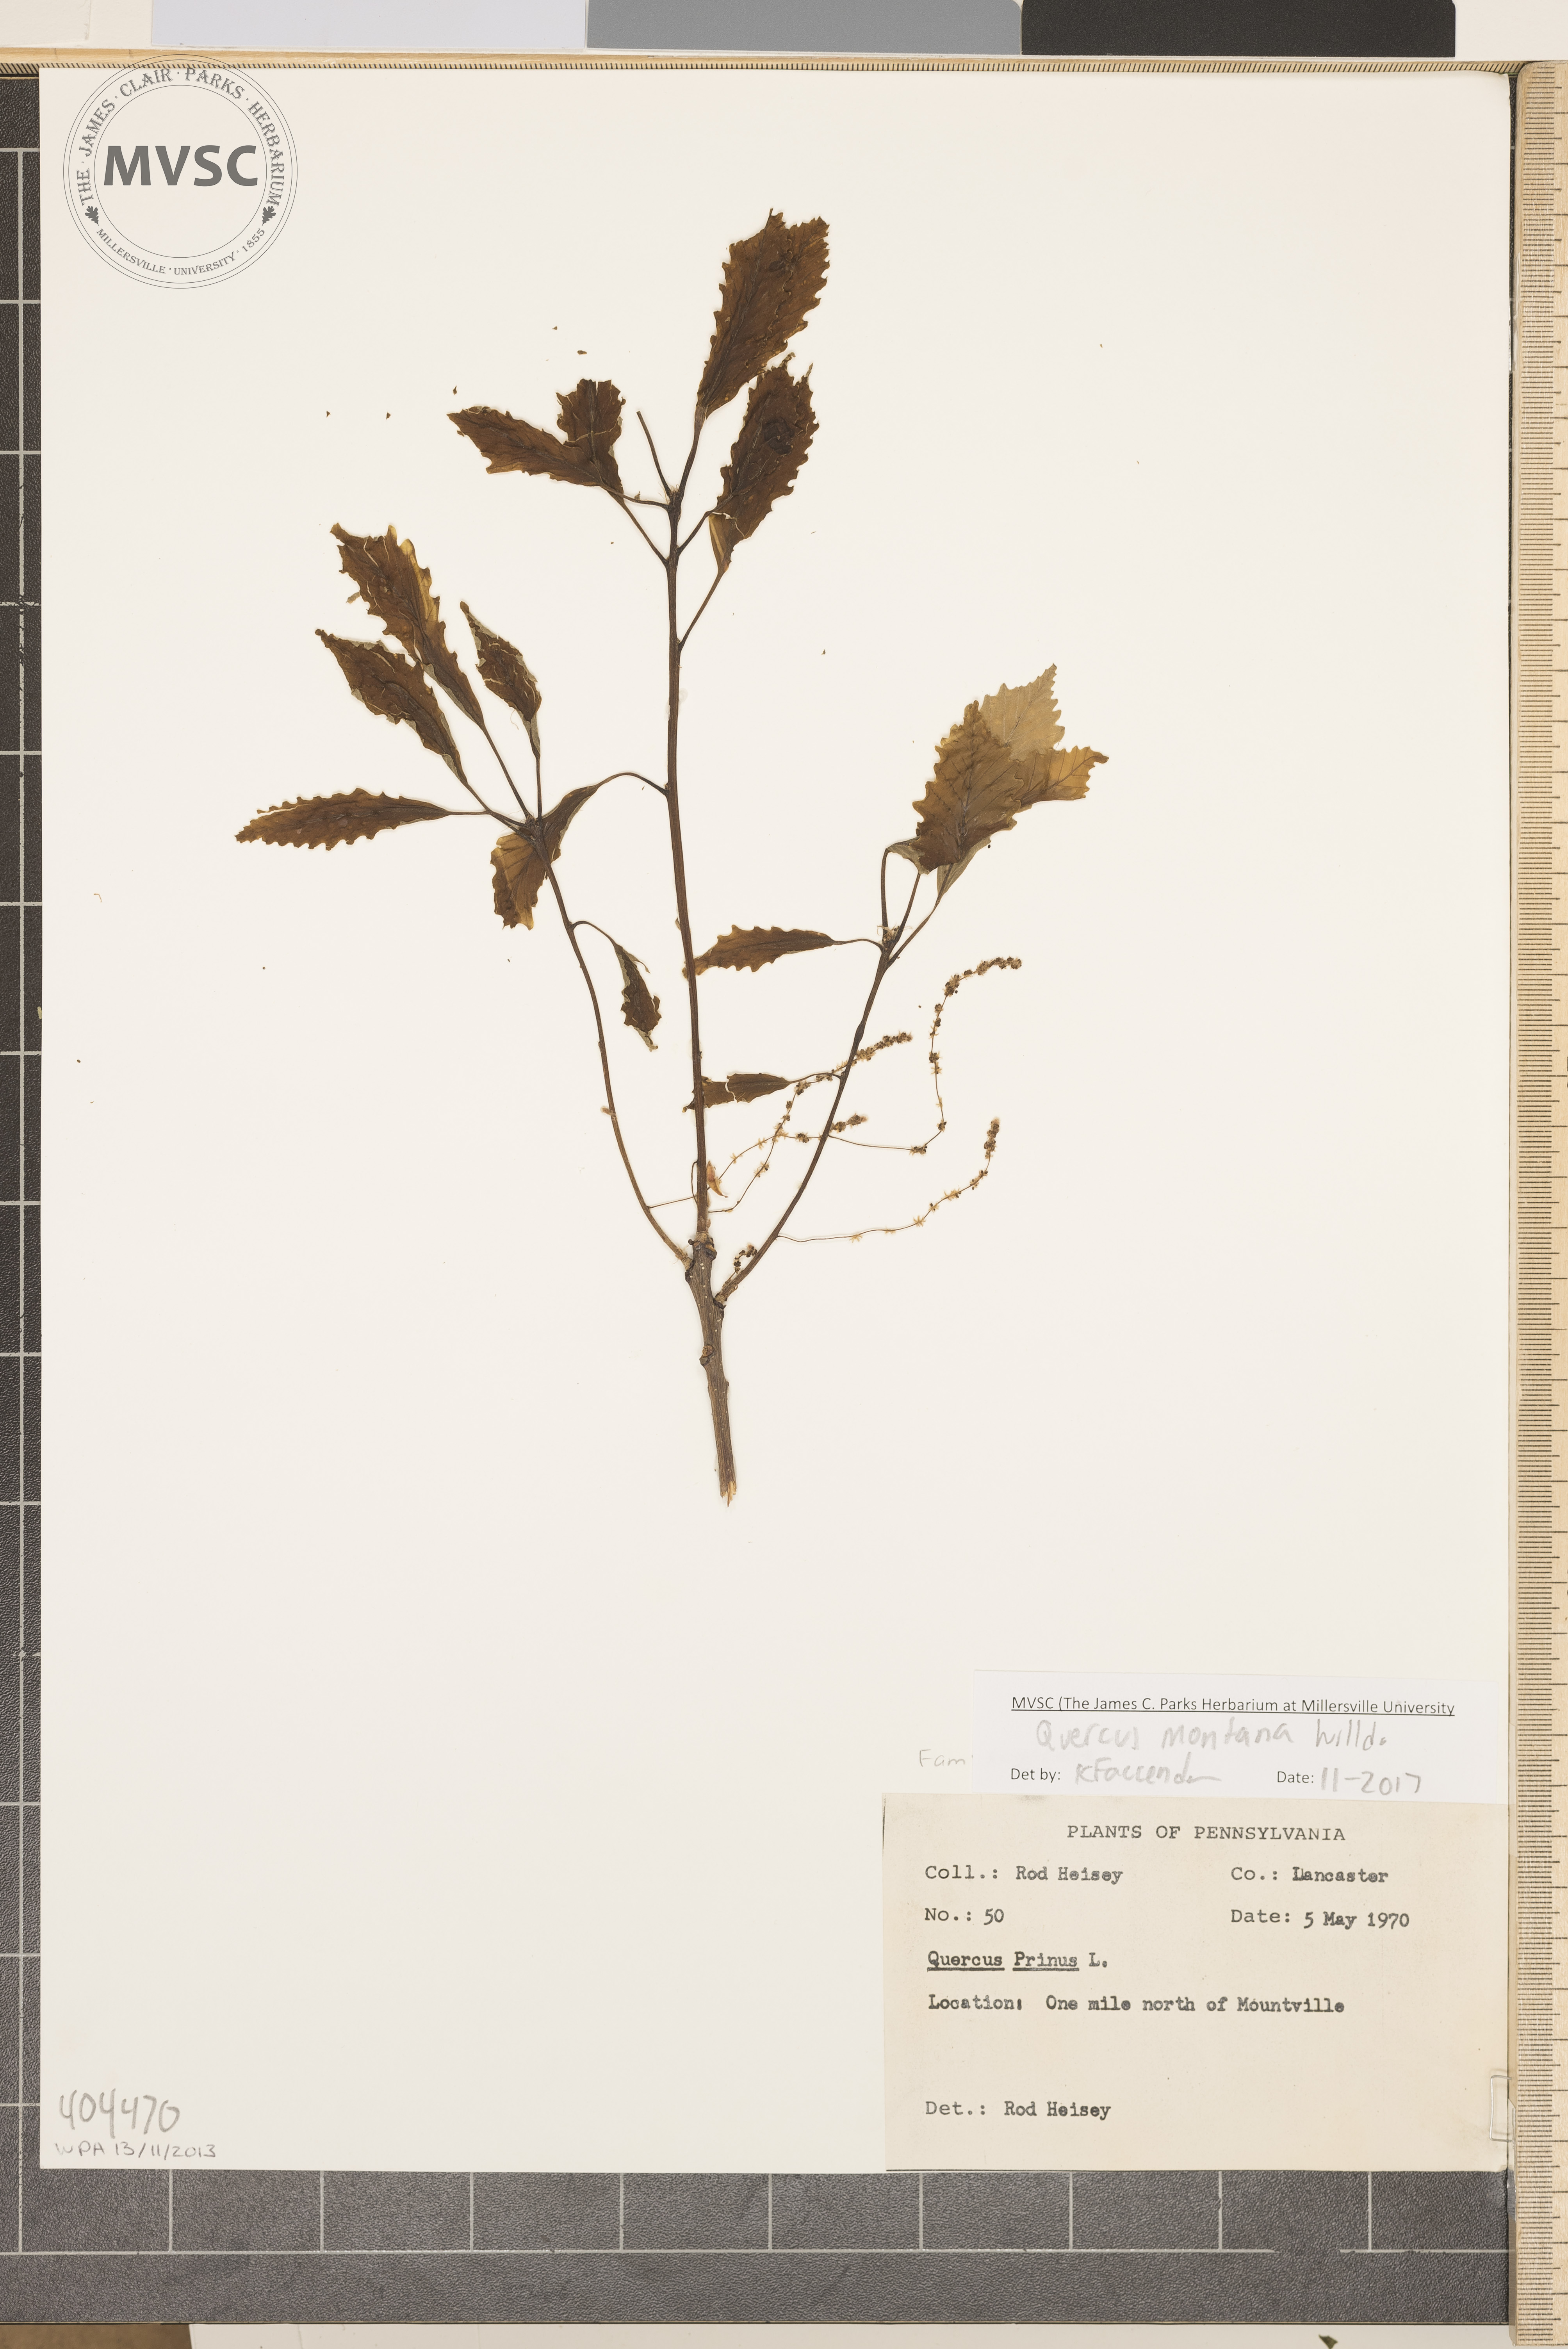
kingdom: Plantae
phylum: Tracheophyta
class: Magnoliopsida
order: Fagales
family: Fagaceae
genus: Quercus
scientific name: Quercus montana
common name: Chestnut oak
